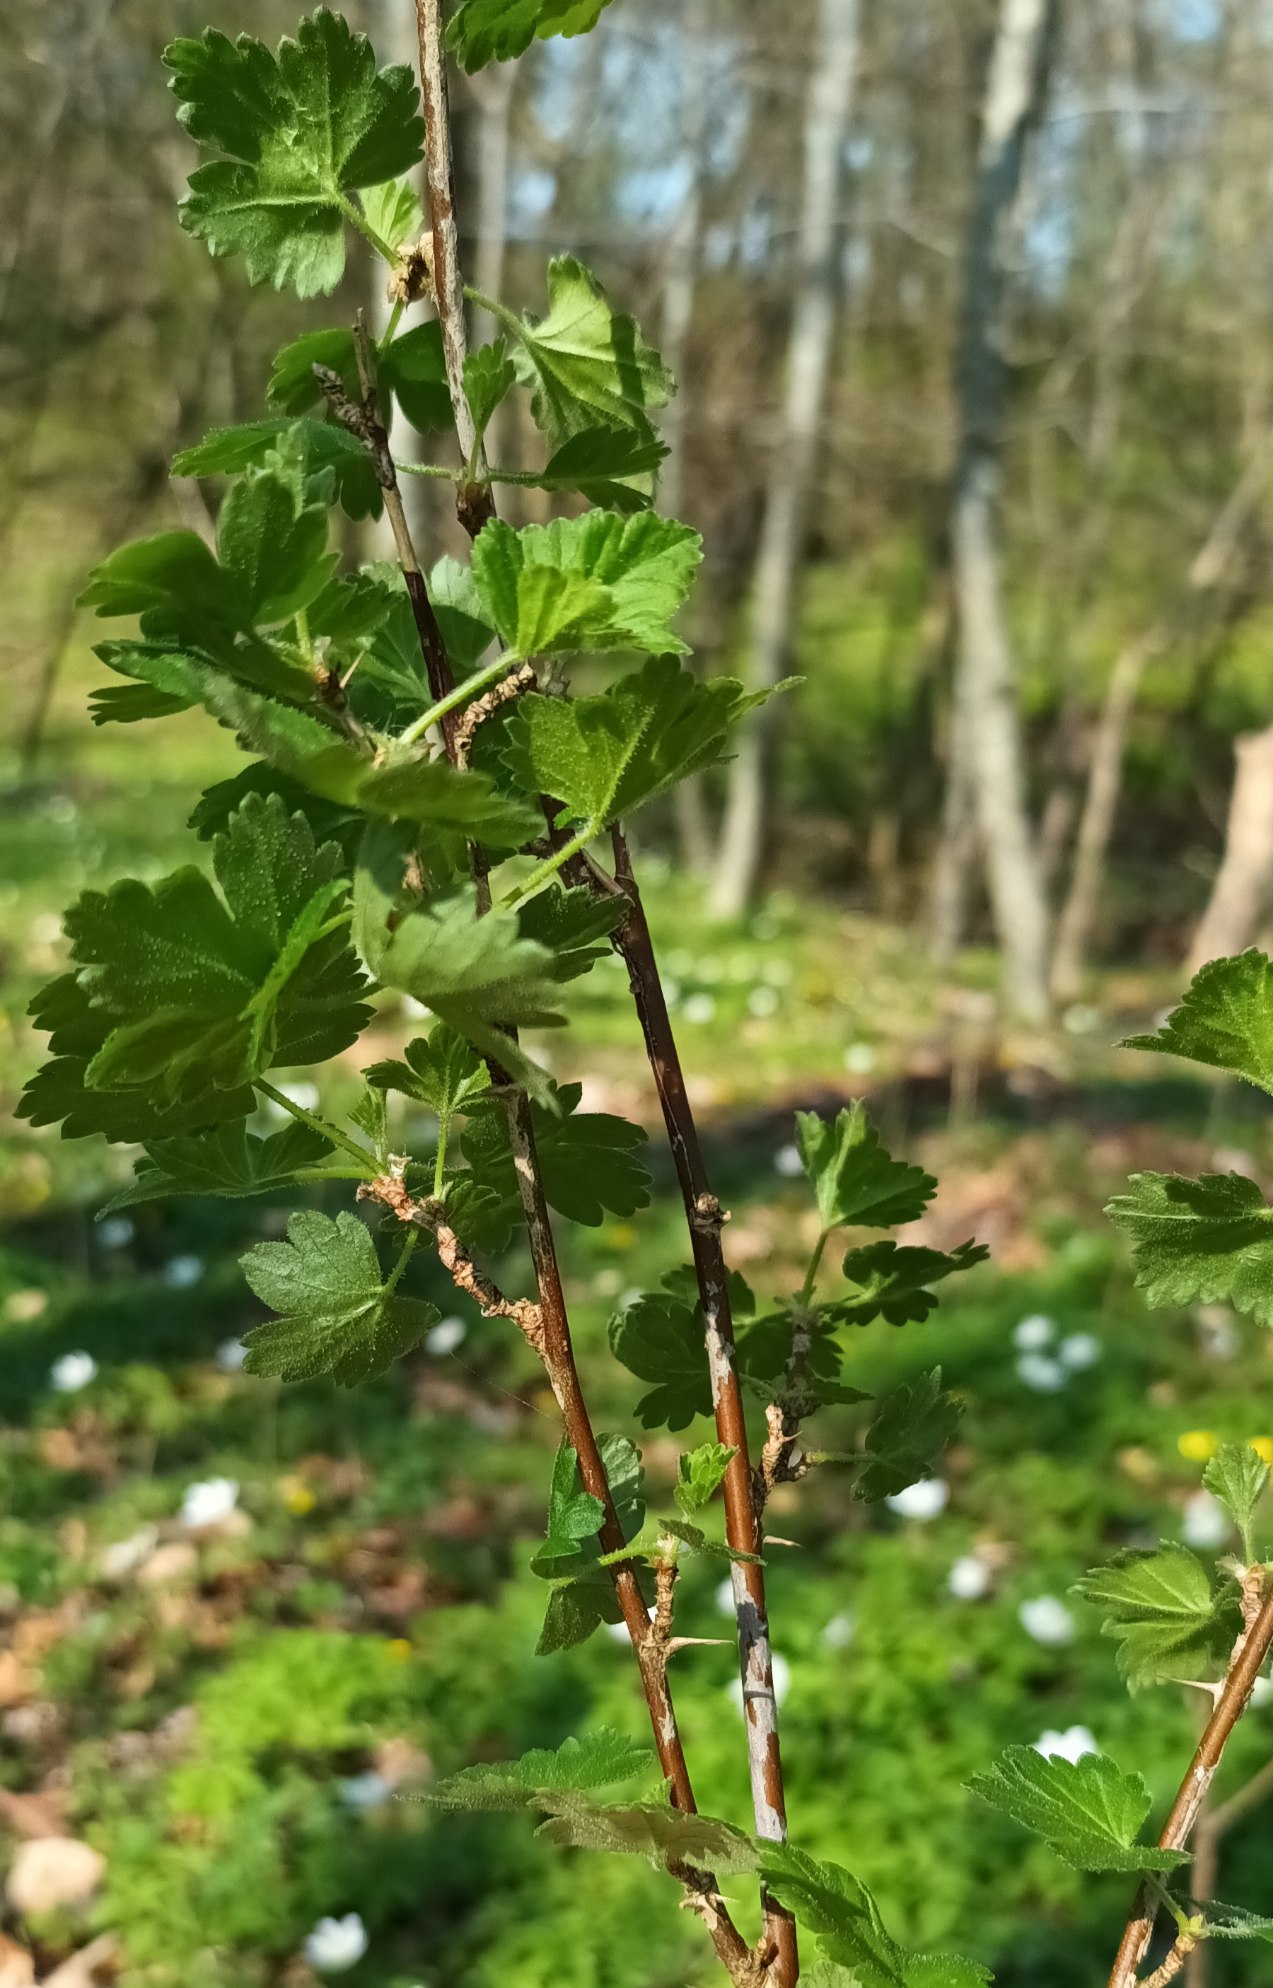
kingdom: Plantae
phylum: Tracheophyta
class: Magnoliopsida
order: Saxifragales
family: Grossulariaceae
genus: Ribes
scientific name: Ribes uva-crispa
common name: Stikkelsbær
